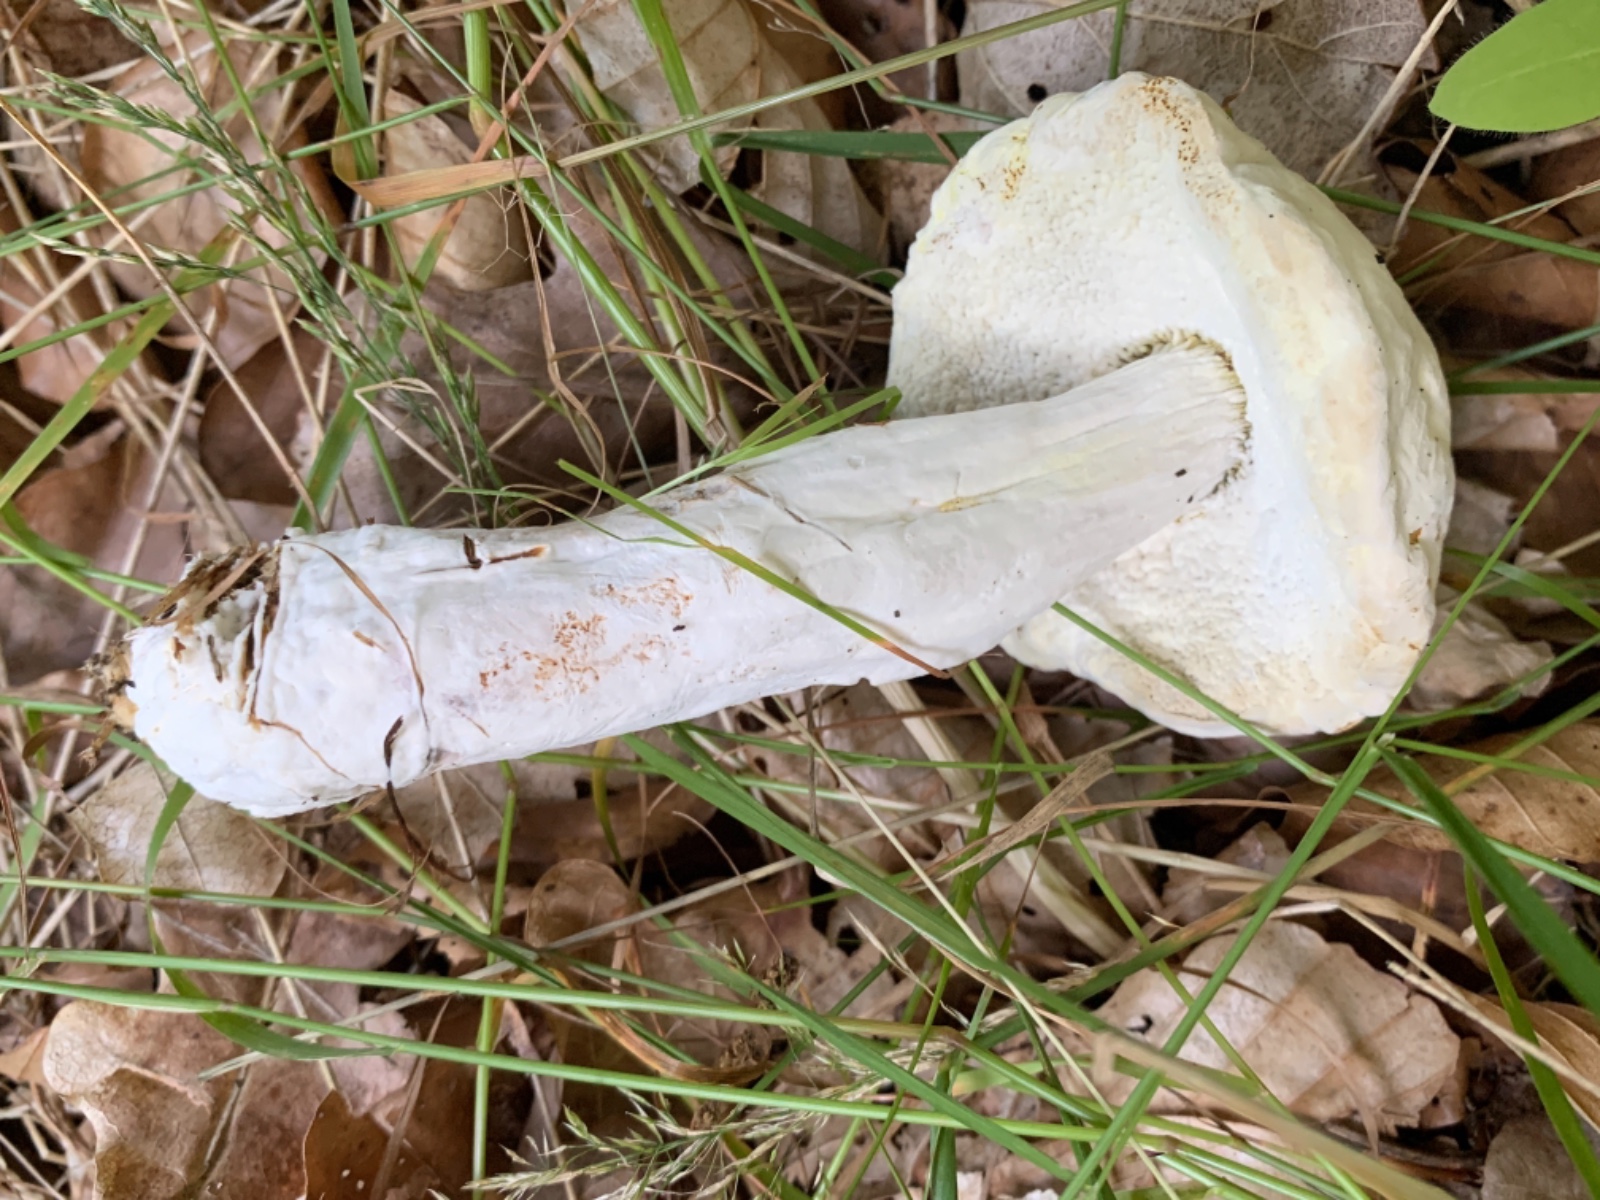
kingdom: Fungi
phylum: Ascomycota
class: Sordariomycetes
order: Hypocreales
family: Hypocreaceae
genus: Hypomyces
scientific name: Hypomyces microspermus
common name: dværgrørhat-snylteskorpe
